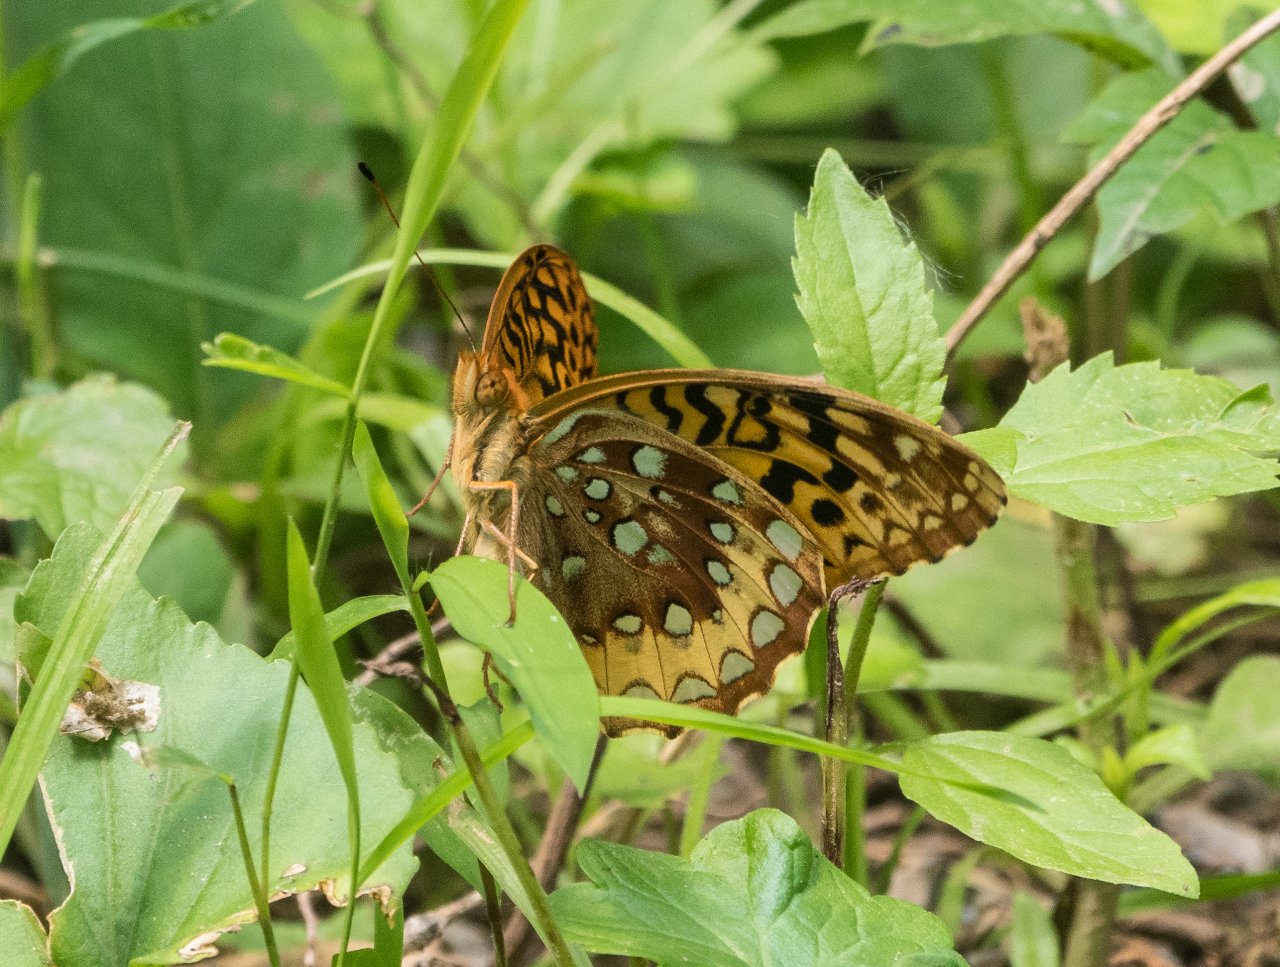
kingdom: Animalia
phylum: Arthropoda
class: Insecta
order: Lepidoptera
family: Nymphalidae
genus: Speyeria
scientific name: Speyeria cybele
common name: Great Spangled Fritillary
